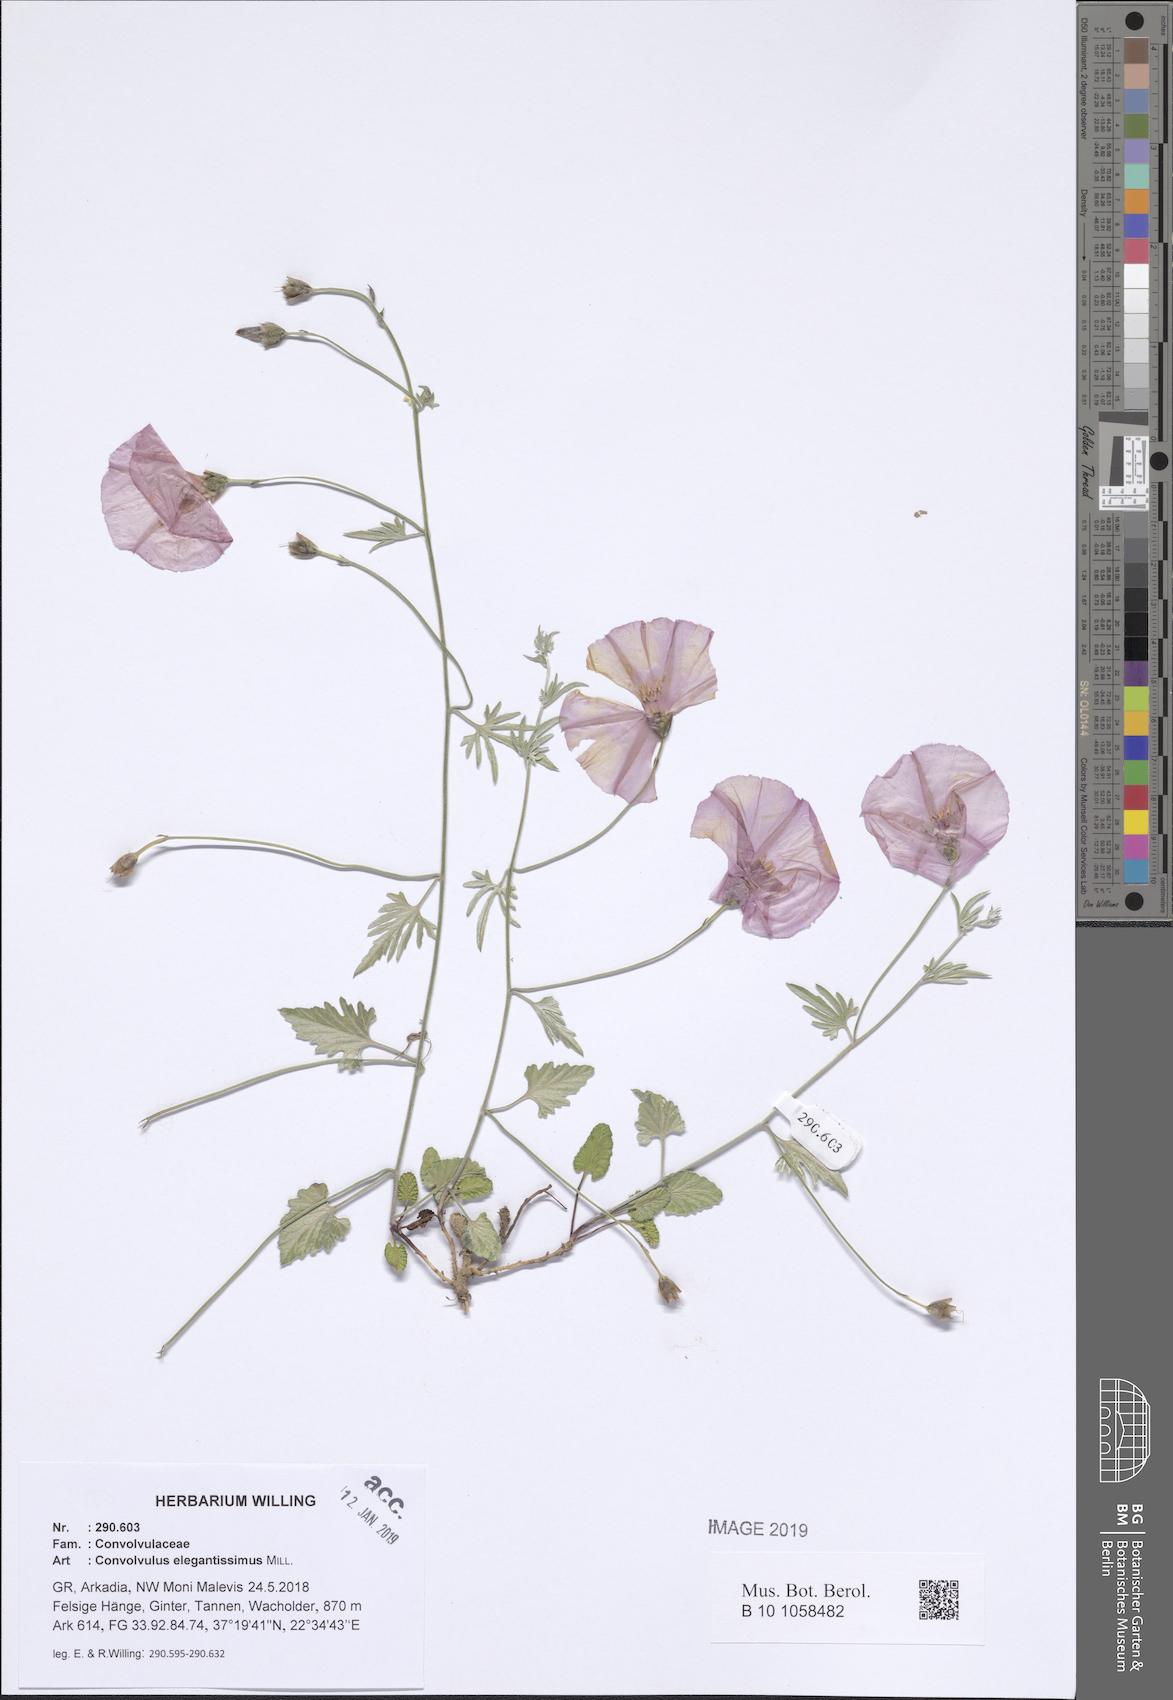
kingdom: Plantae
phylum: Tracheophyta
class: Magnoliopsida
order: Solanales
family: Convolvulaceae
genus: Convolvulus
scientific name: Convolvulus elegantissimus
